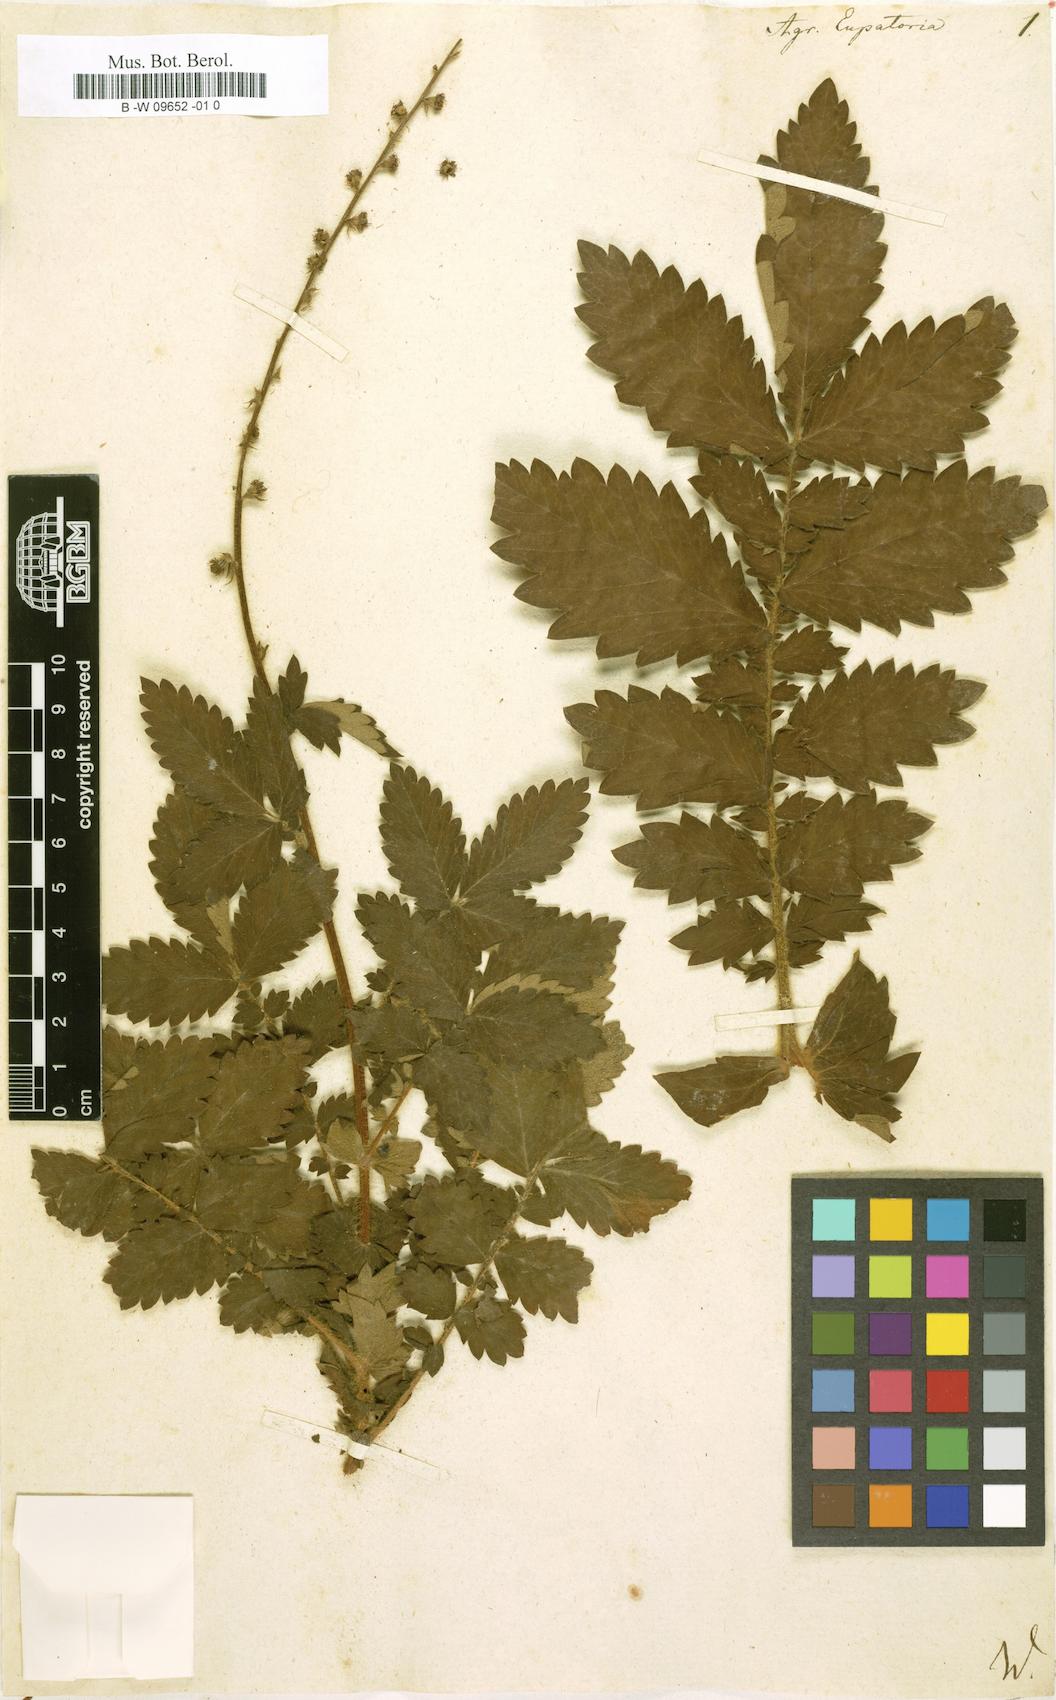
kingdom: Plantae
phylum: Tracheophyta
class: Magnoliopsida
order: Rosales
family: Rosaceae
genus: Agrimonia
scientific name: Agrimonia eupatoria
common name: Agrimony
